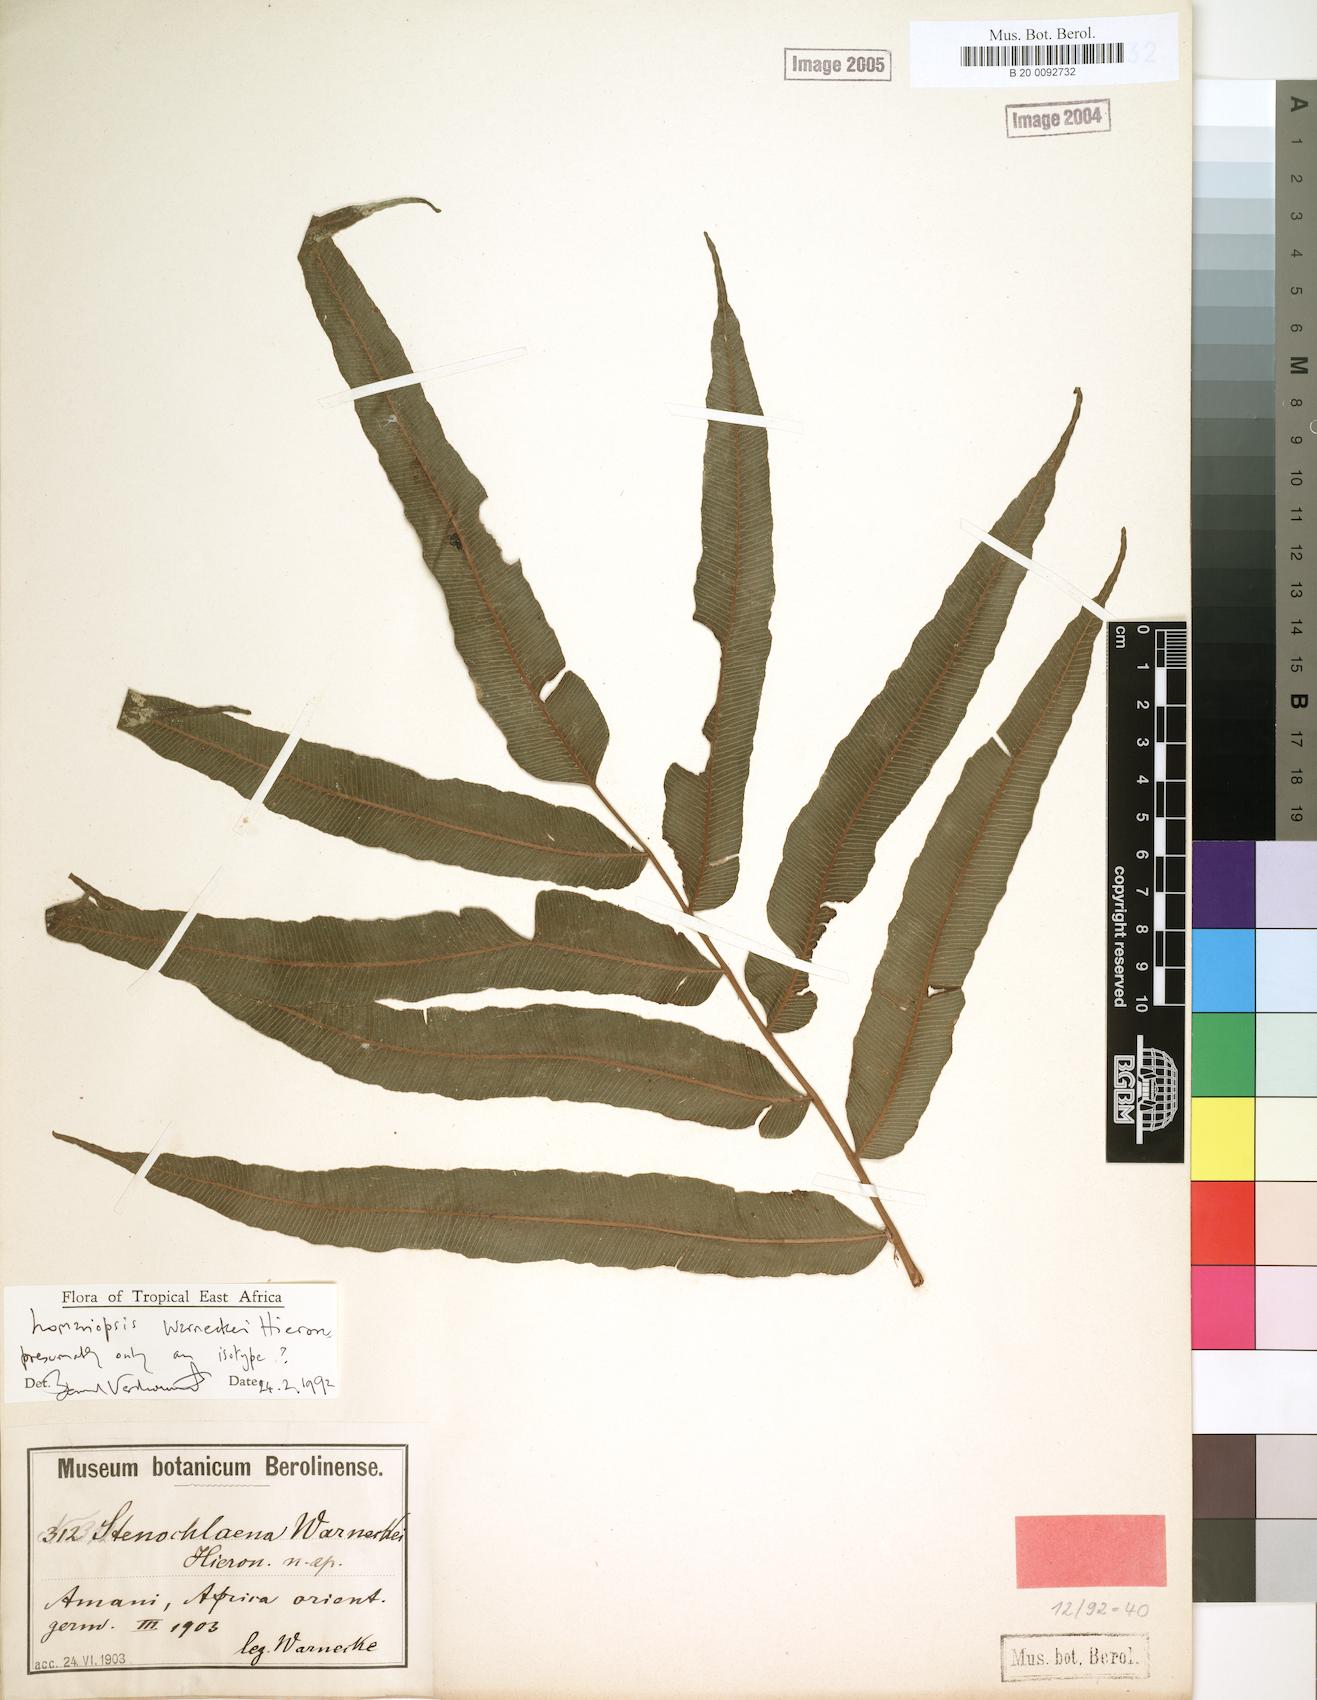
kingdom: Plantae
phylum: Tracheophyta
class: Polypodiopsida
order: Polypodiales
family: Lomariopsidaceae
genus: Lomariopsis
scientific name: Lomariopsis warneckei
